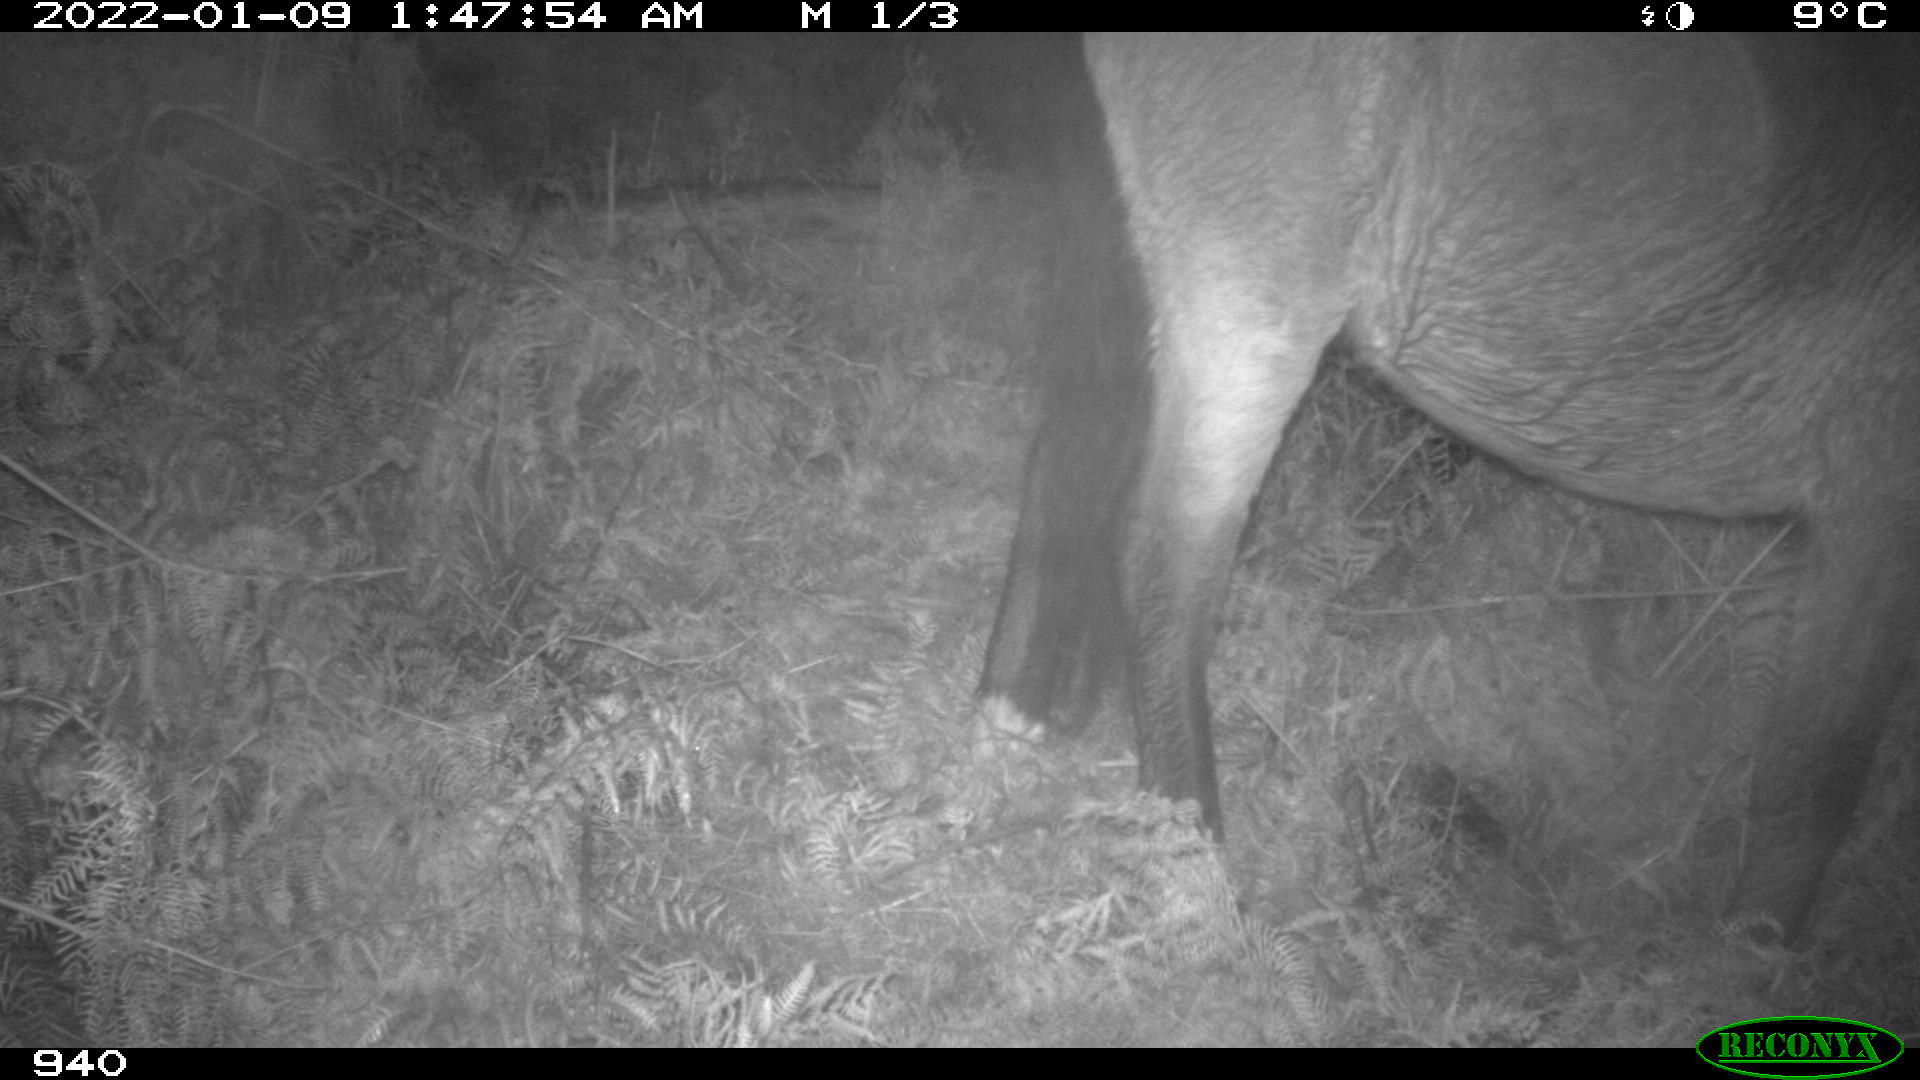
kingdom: Animalia
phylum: Chordata
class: Mammalia
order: Perissodactyla
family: Equidae
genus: Equus
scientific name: Equus caballus
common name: Horse
